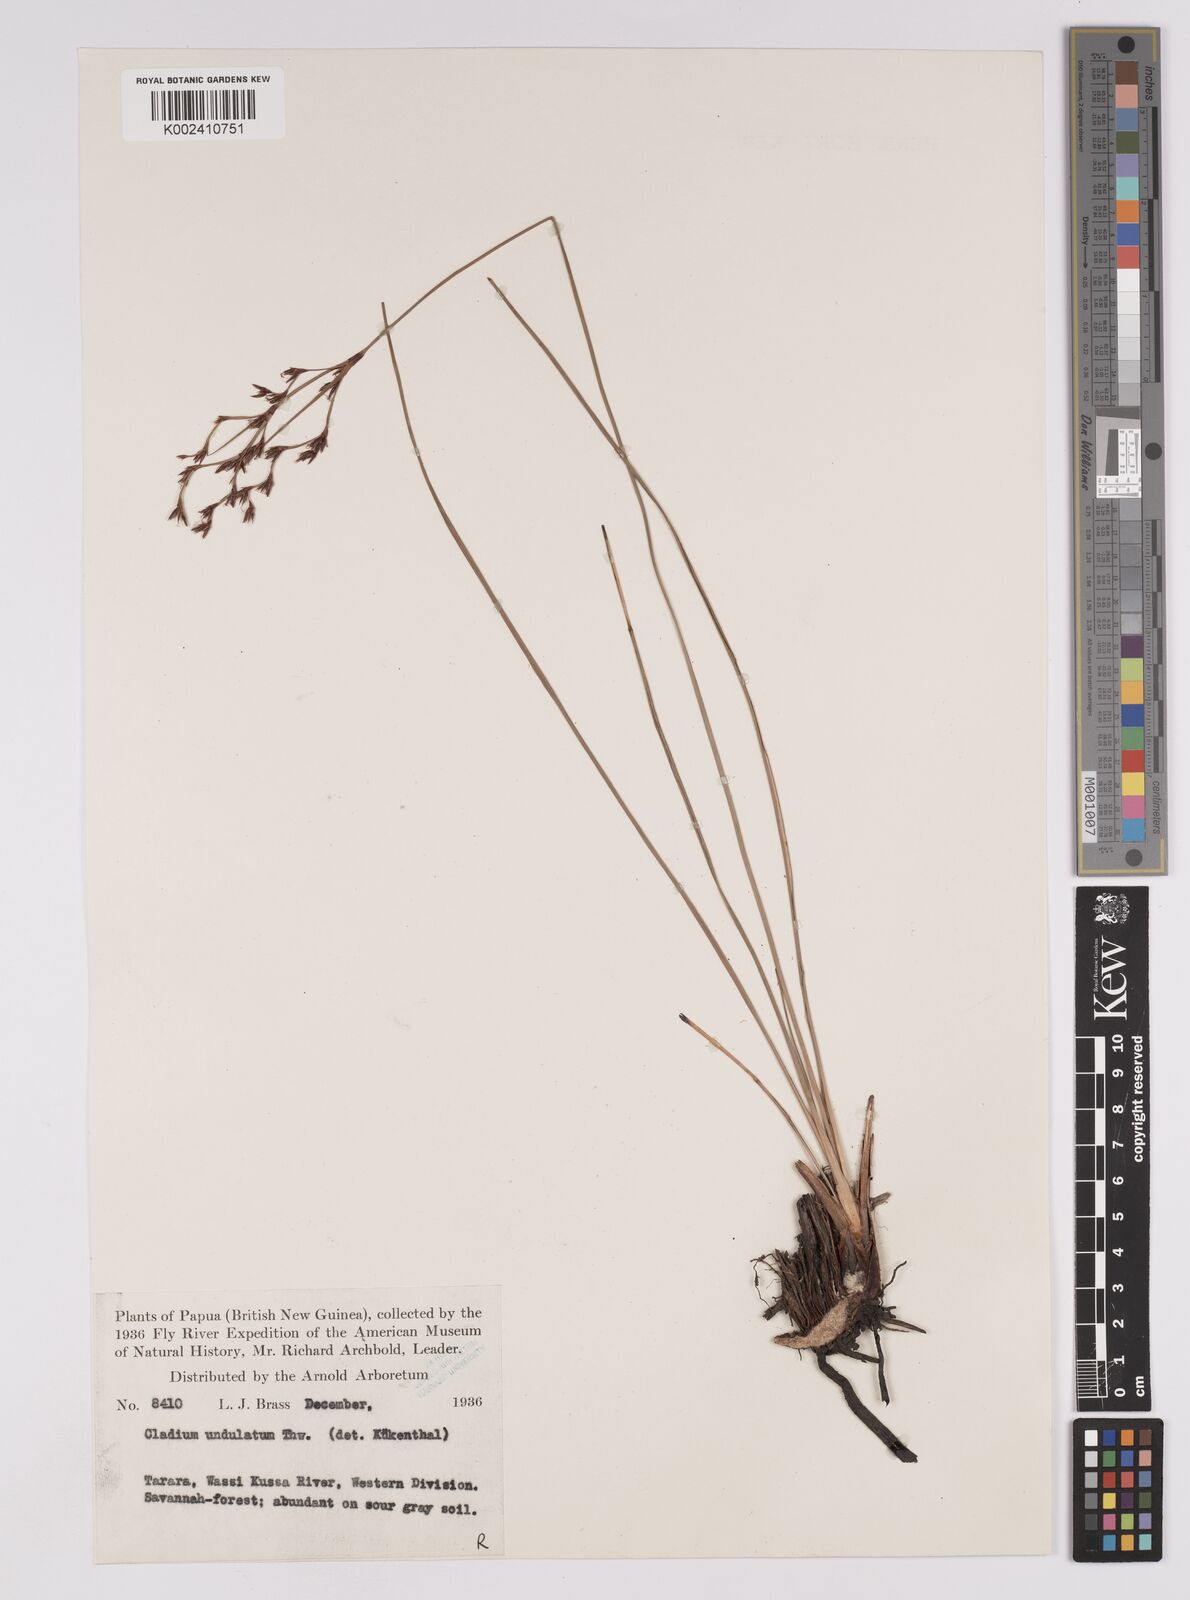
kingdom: Plantae
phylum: Tracheophyta
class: Liliopsida
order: Poales
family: Cyperaceae
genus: Anthelepis
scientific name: Anthelepis undulata
